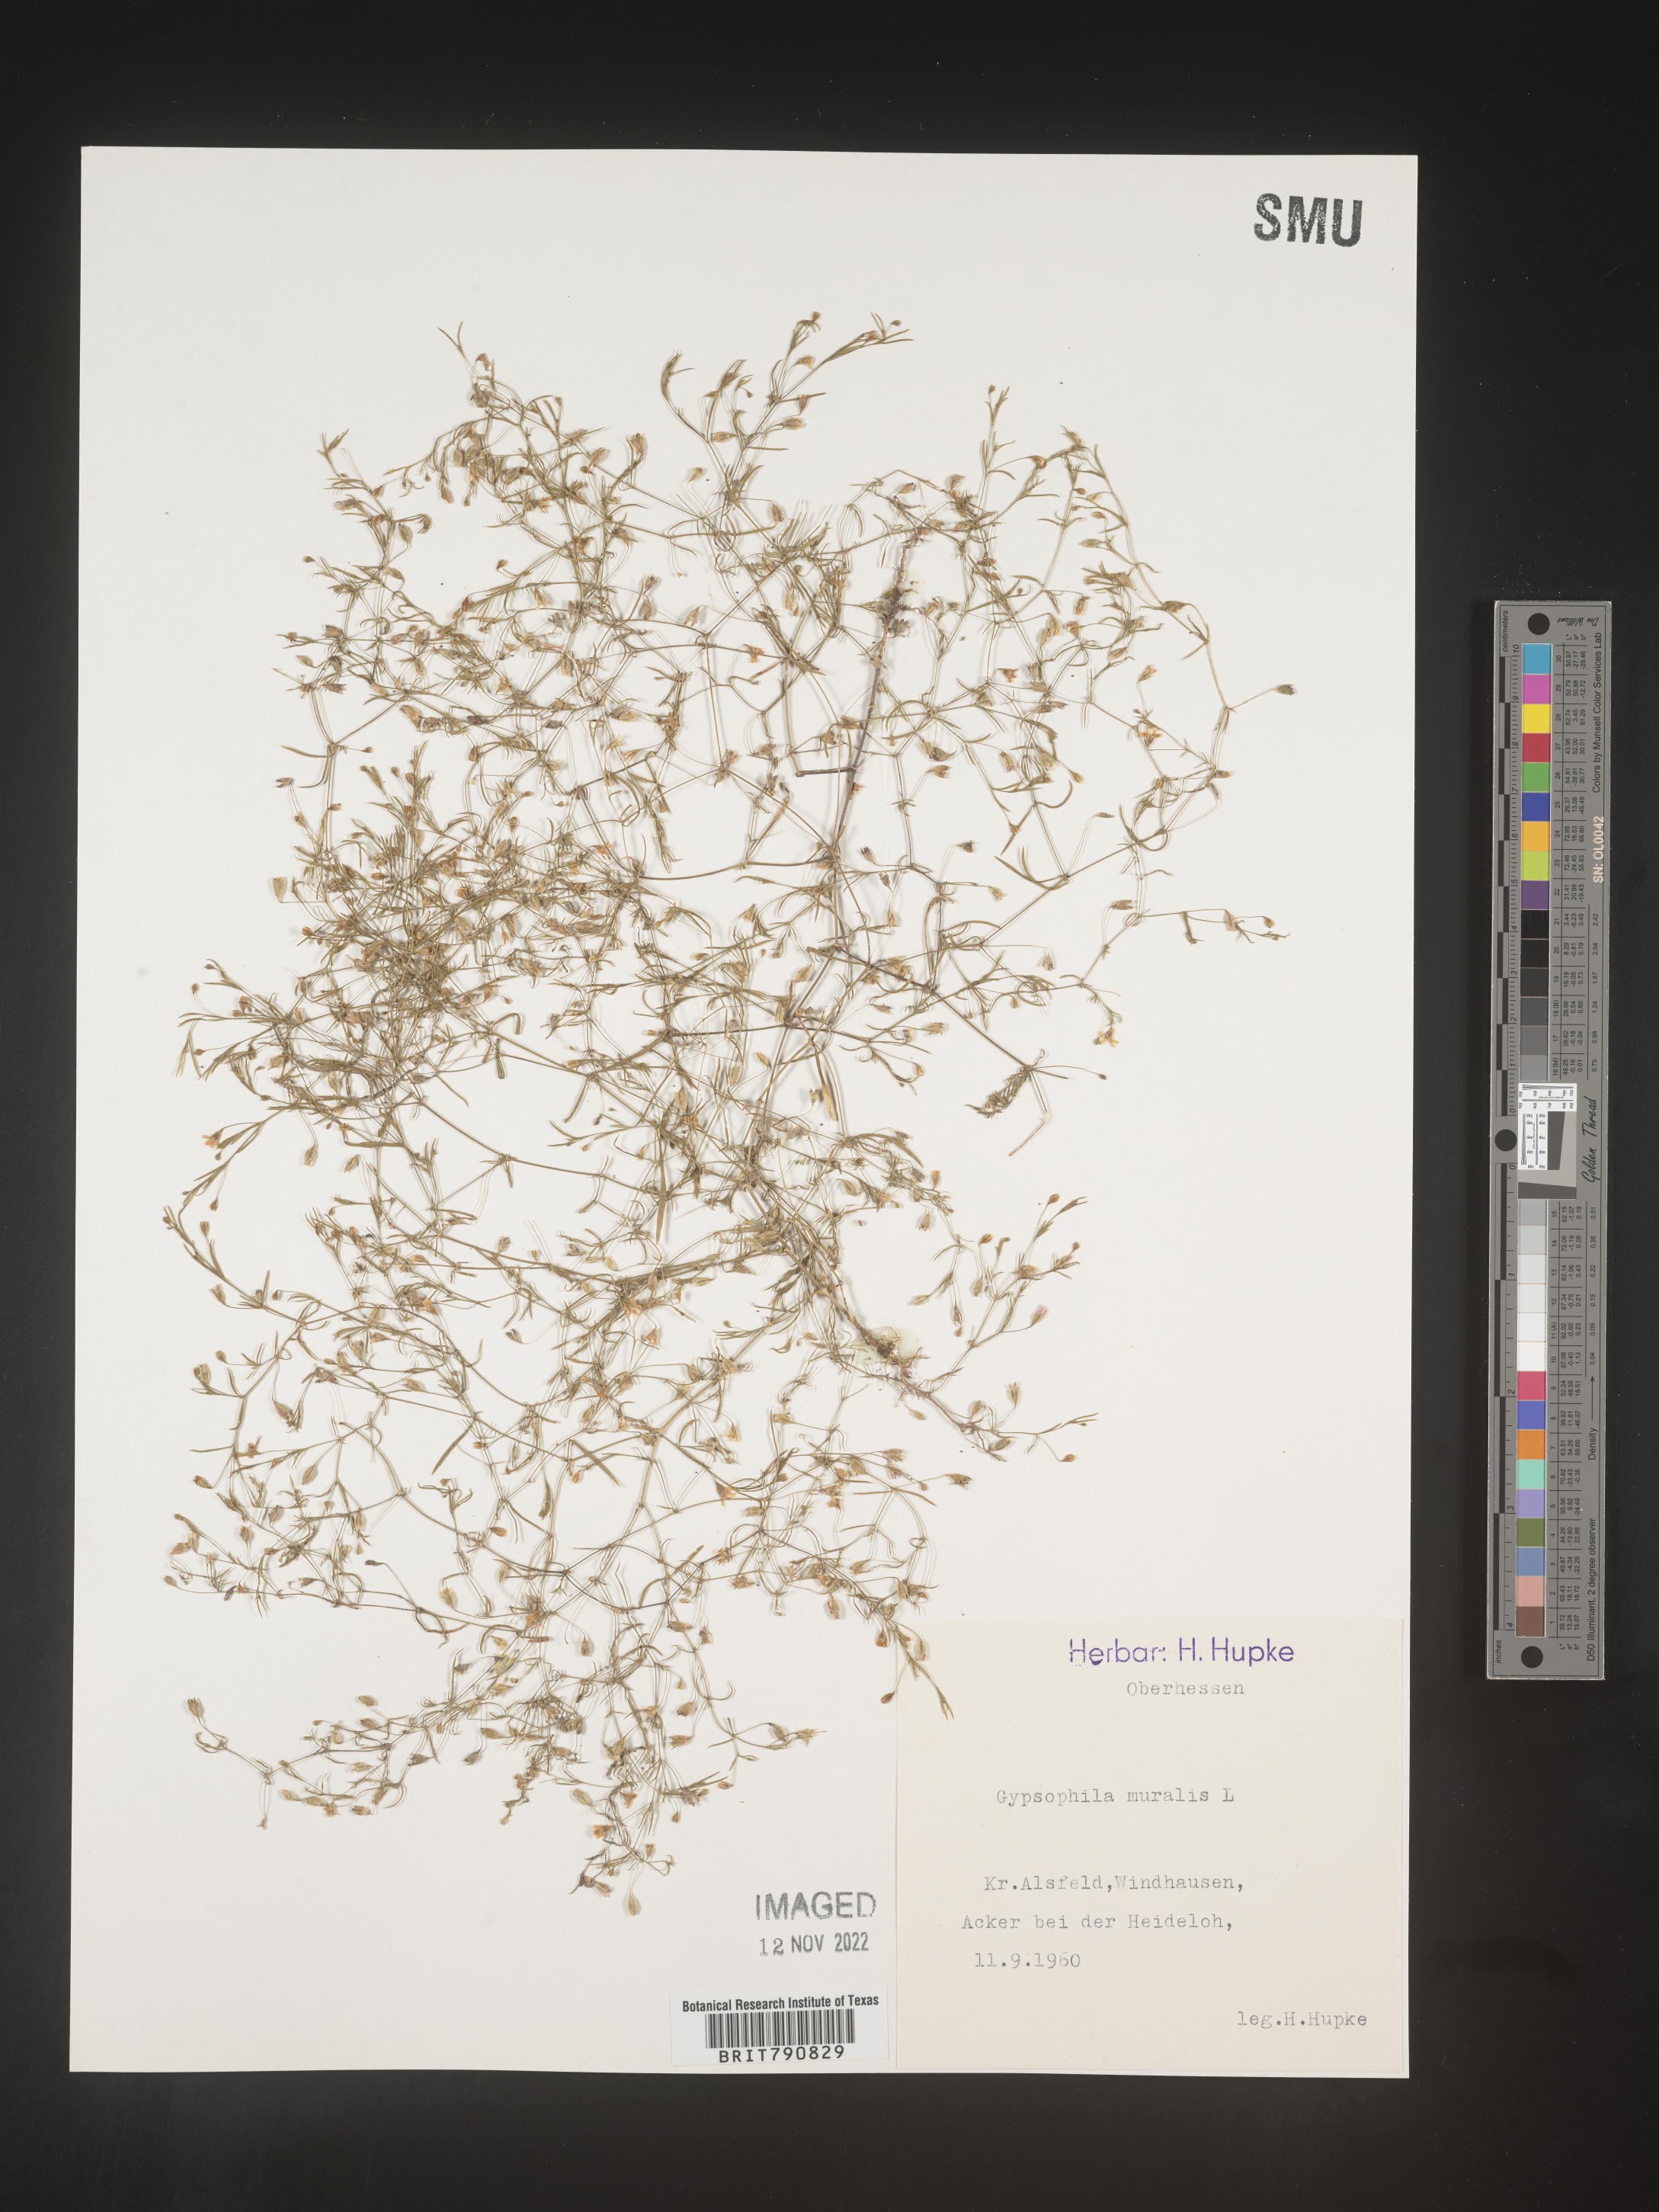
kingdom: Plantae
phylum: Tracheophyta
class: Magnoliopsida
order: Caryophyllales
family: Caryophyllaceae
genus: Gypsophila
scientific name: Gypsophila
